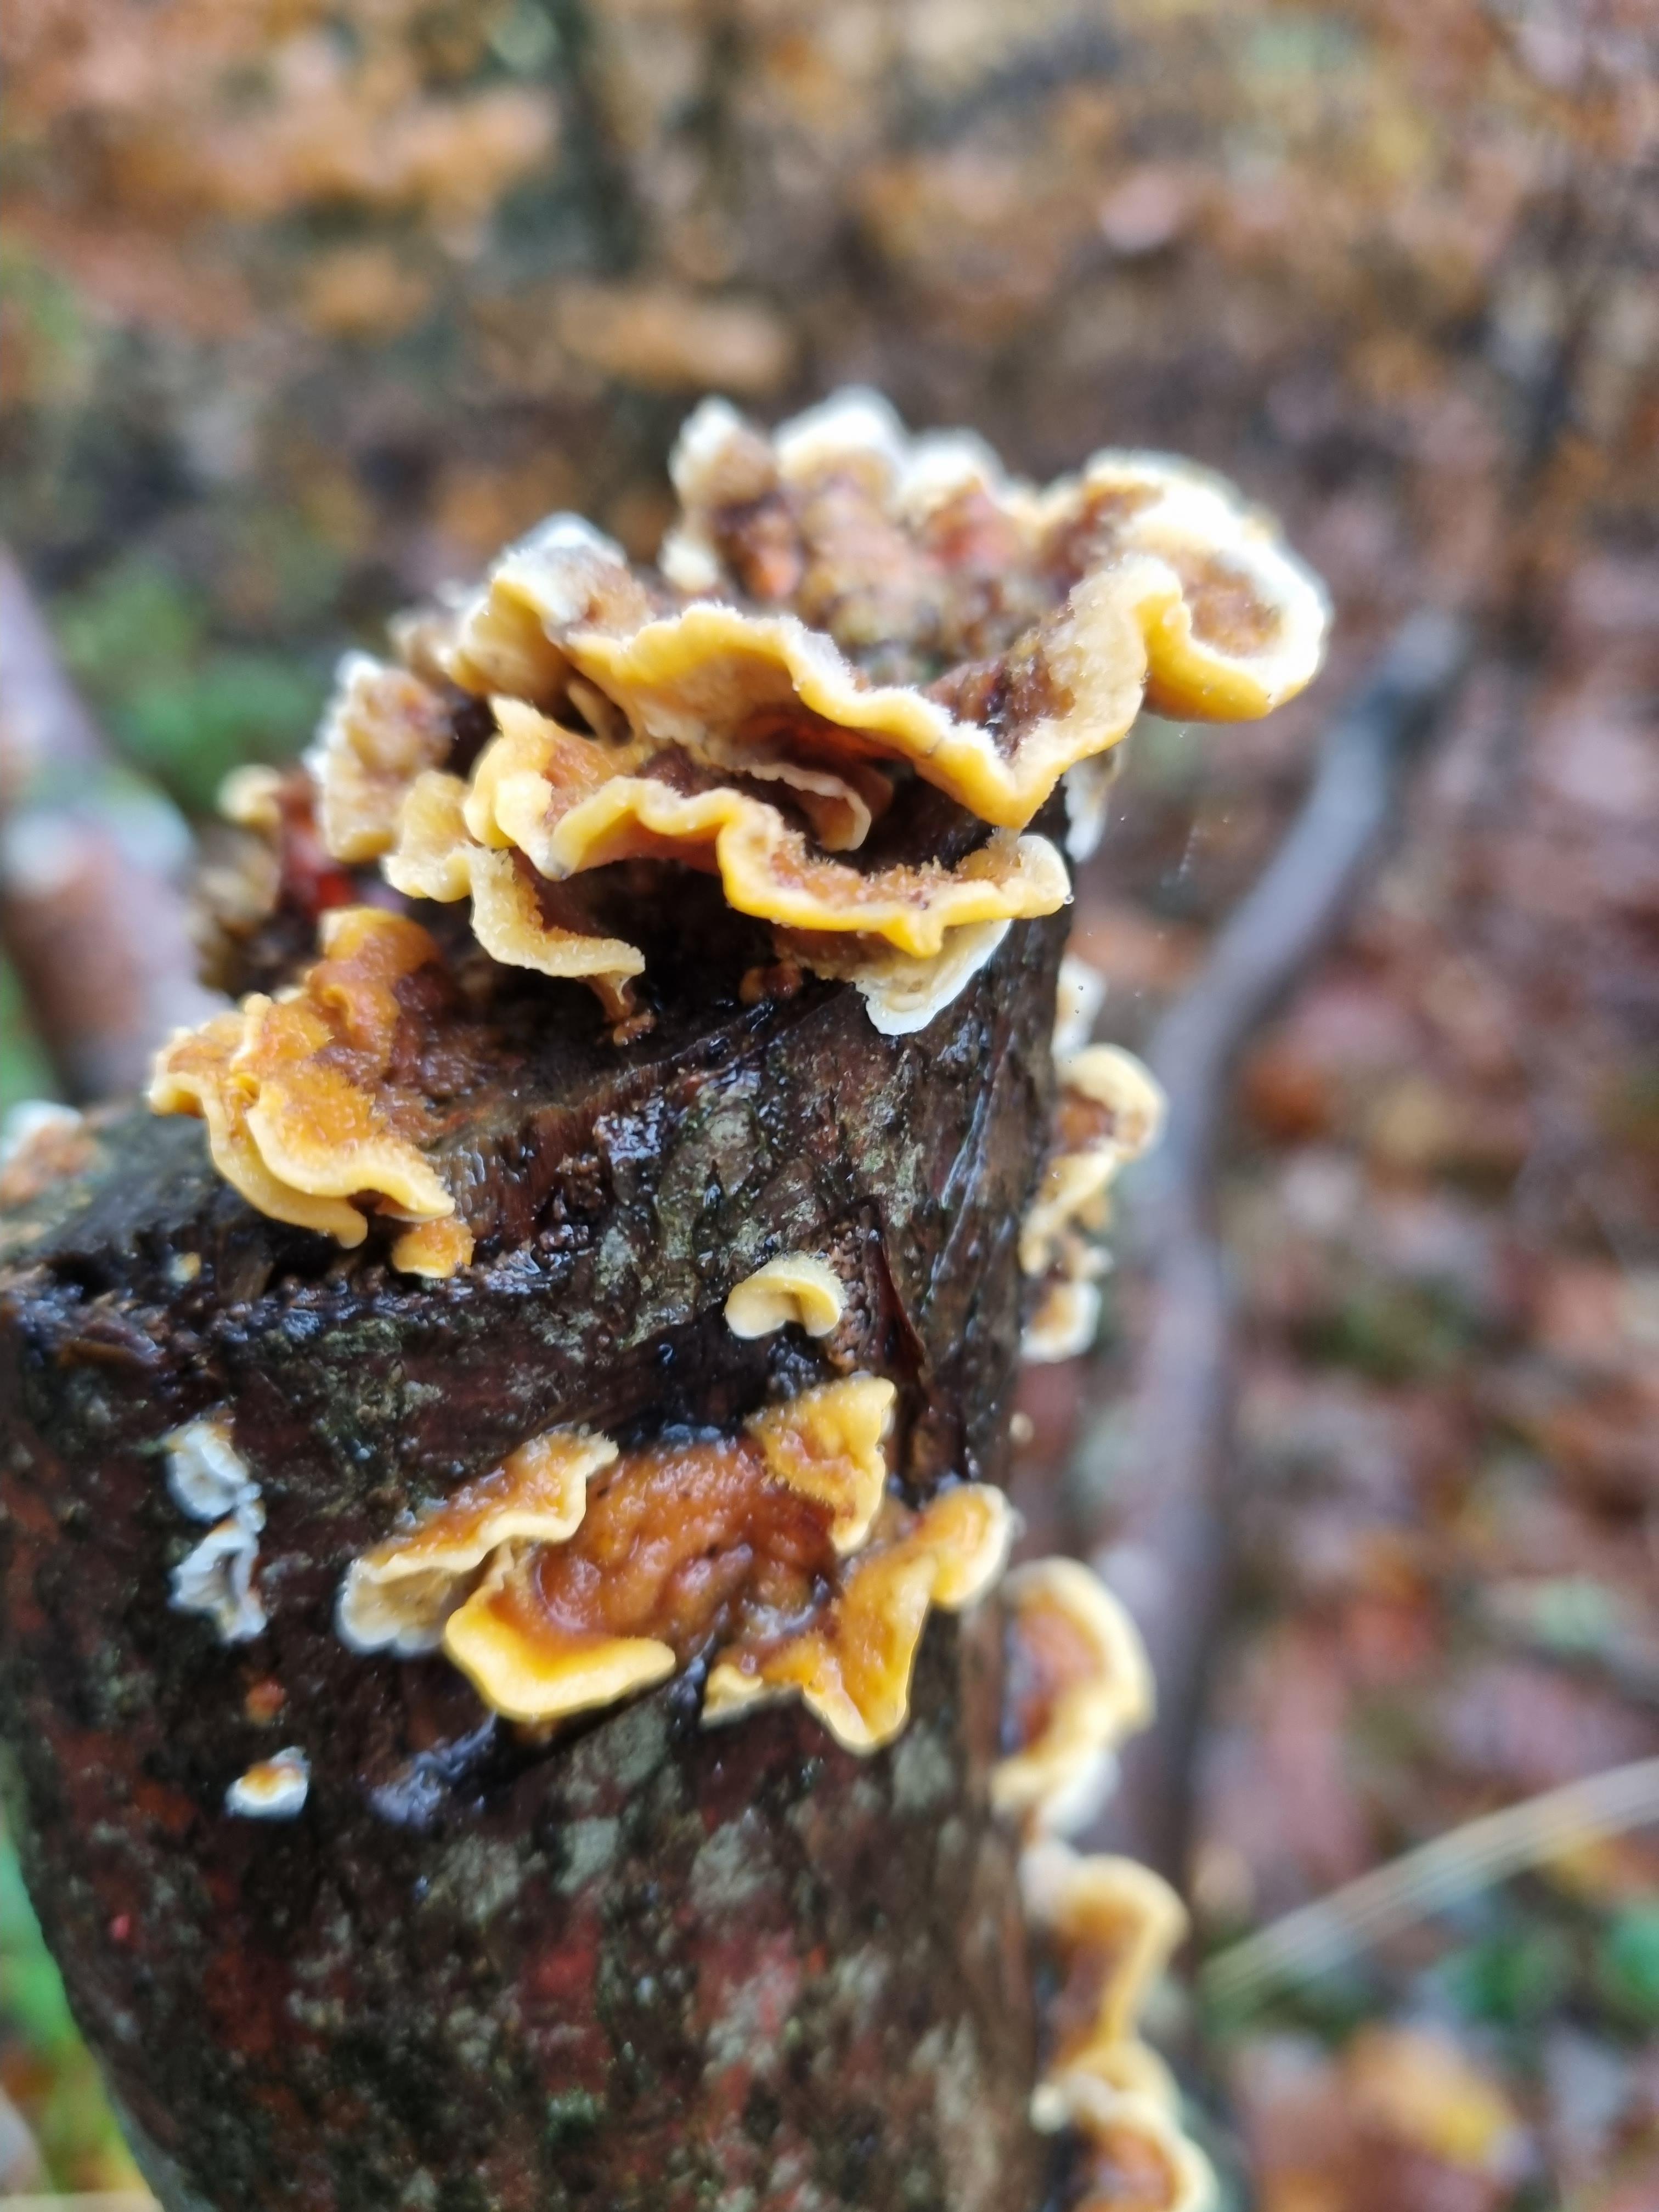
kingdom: Fungi
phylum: Basidiomycota
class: Agaricomycetes
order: Russulales
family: Stereaceae
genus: Stereum
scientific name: Stereum hirsutum
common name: håret lædersvamp
